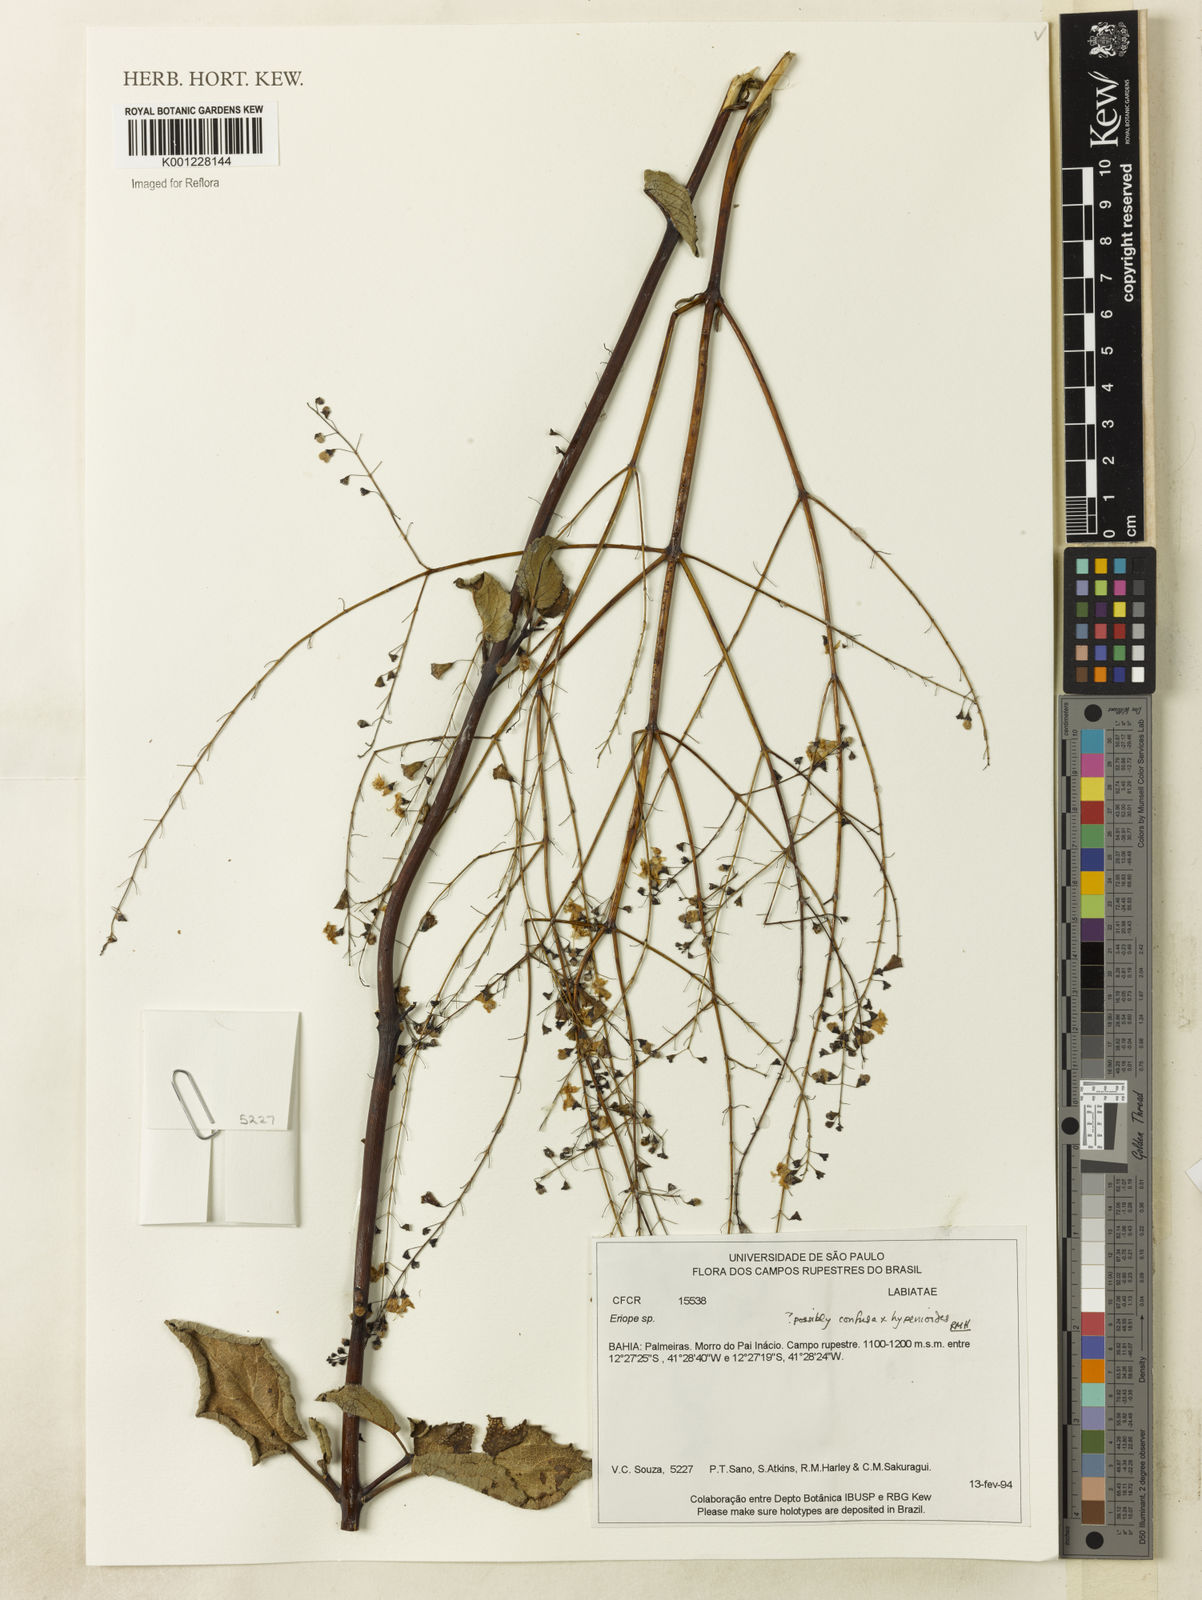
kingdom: Plantae
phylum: Tracheophyta
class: Magnoliopsida
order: Lamiales
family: Lamiaceae
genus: Eriope
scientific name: Eriope
